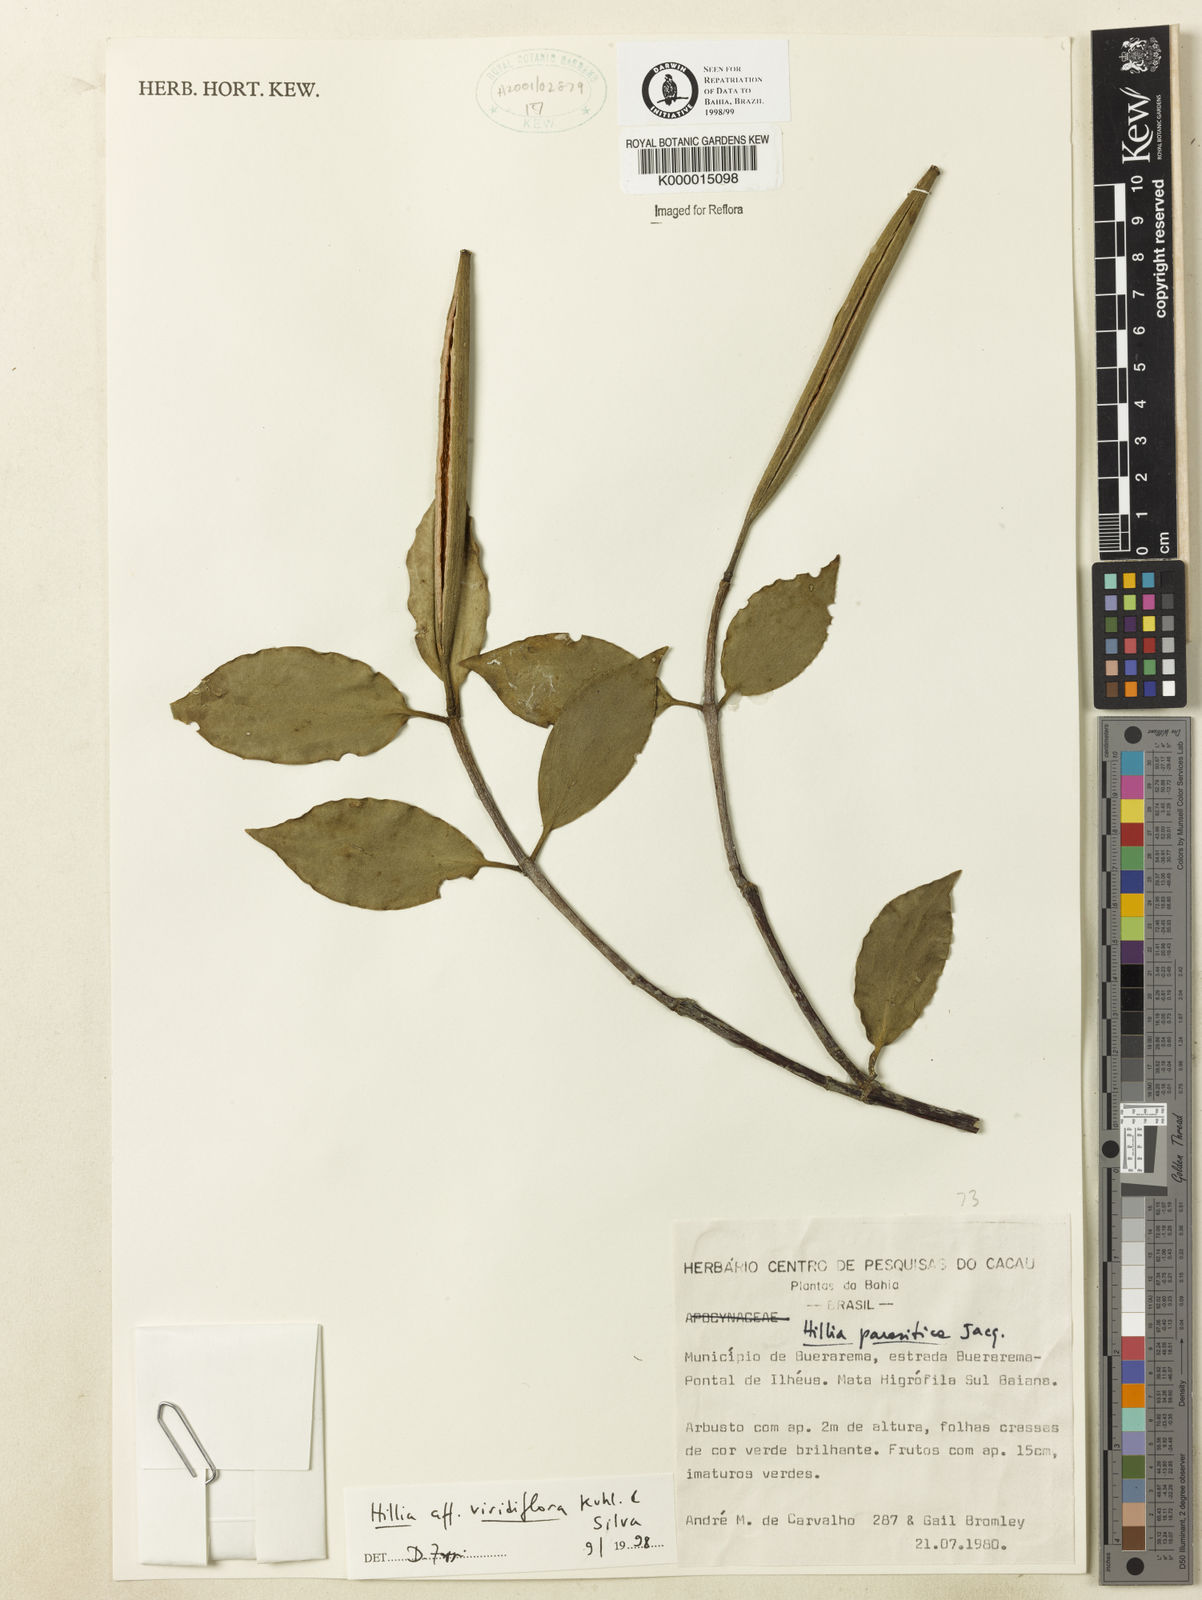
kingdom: Plantae
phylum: Tracheophyta
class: Magnoliopsida
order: Gentianales
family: Rubiaceae
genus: Hillia
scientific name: Hillia ulei
